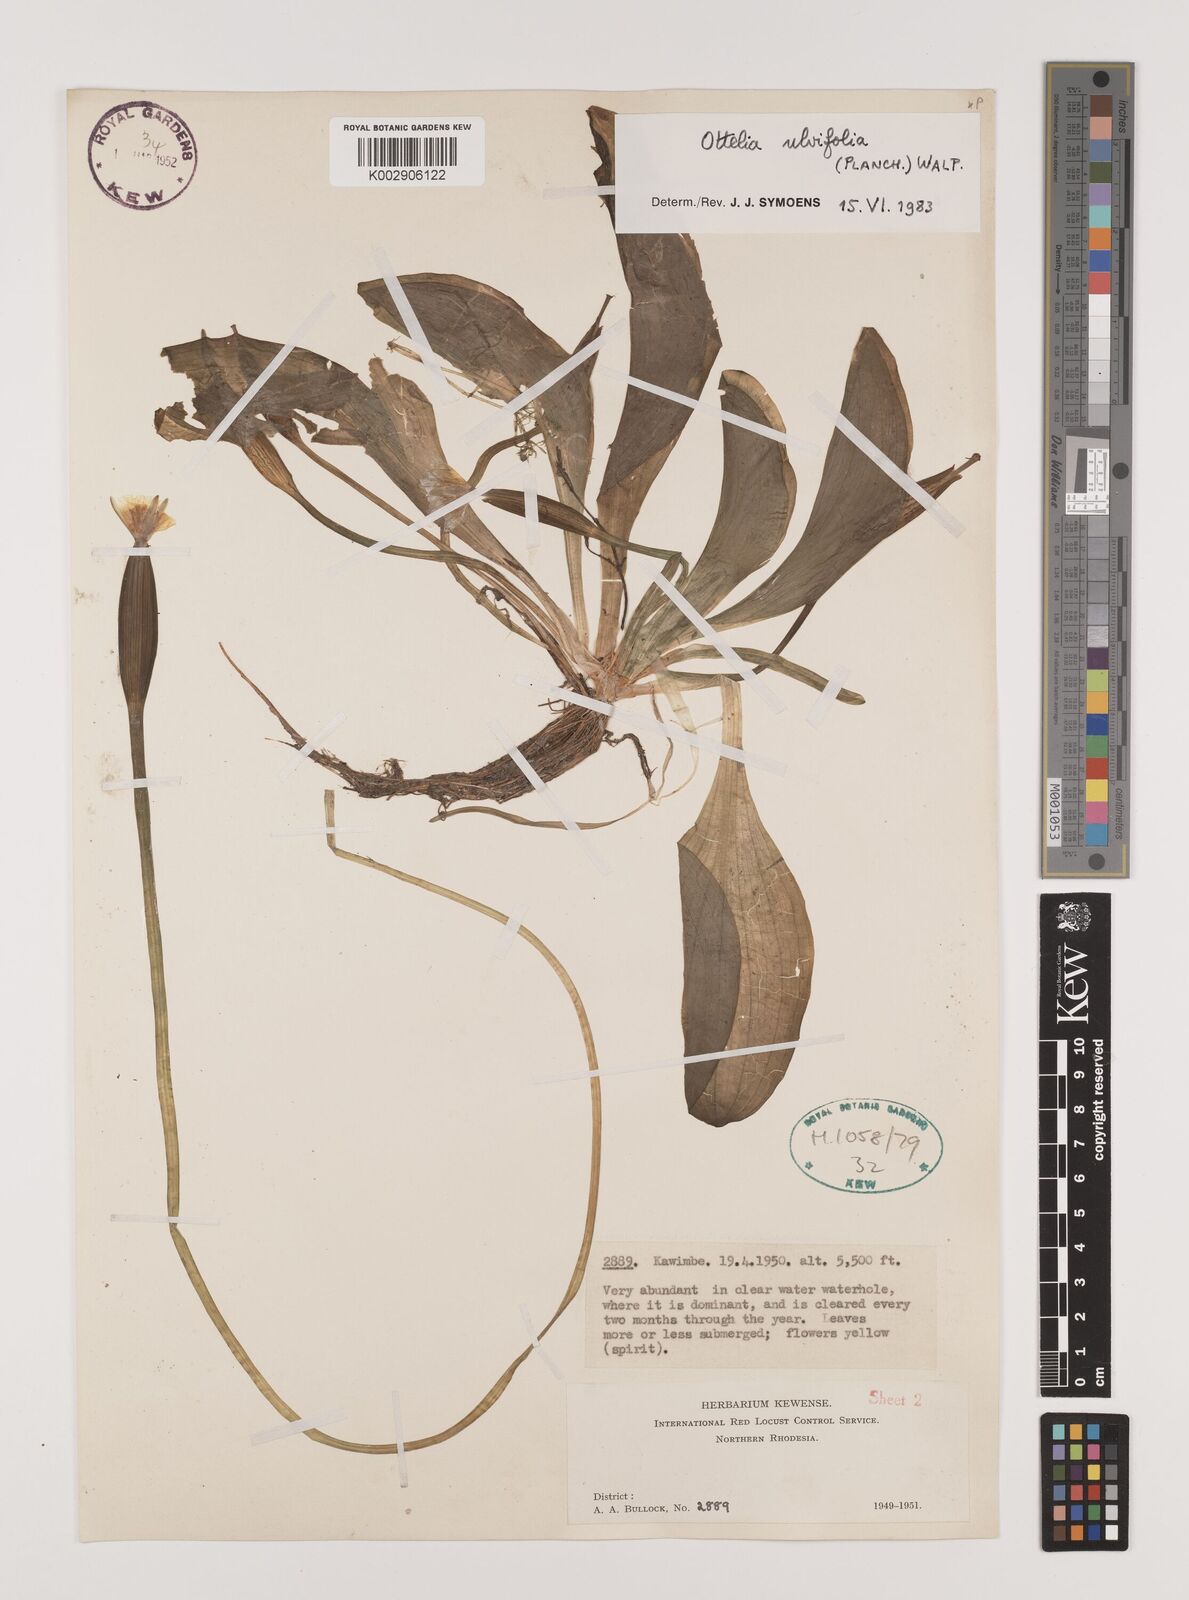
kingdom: Plantae
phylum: Tracheophyta
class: Liliopsida
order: Alismatales
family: Hydrocharitaceae
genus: Ottelia
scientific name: Ottelia ulvifolia
